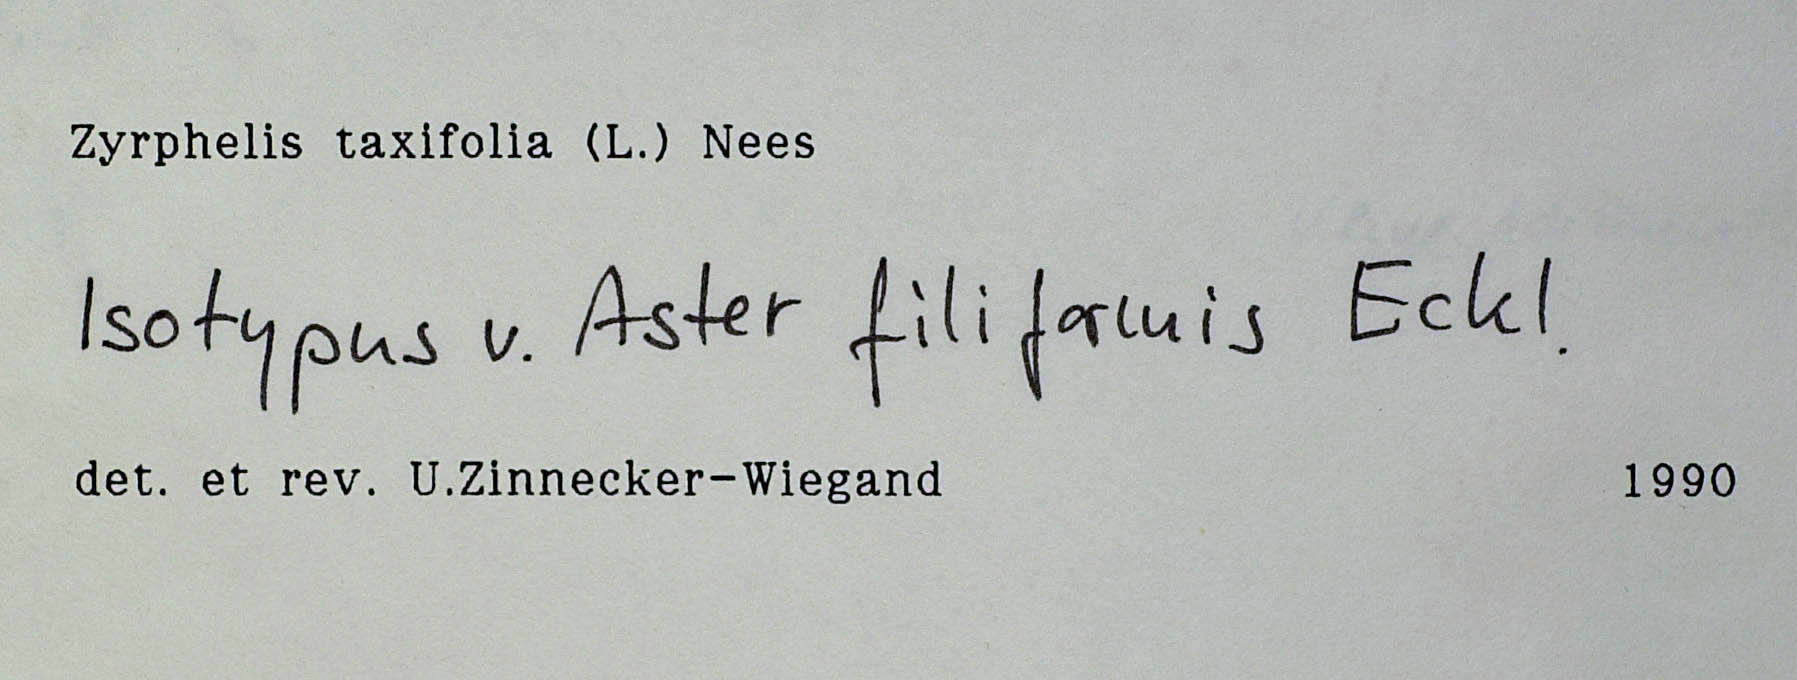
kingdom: Plantae
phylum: Tracheophyta
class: Magnoliopsida
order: Asterales
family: Asteraceae
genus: Zyrphelis
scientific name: Zyrphelis taxifolia
